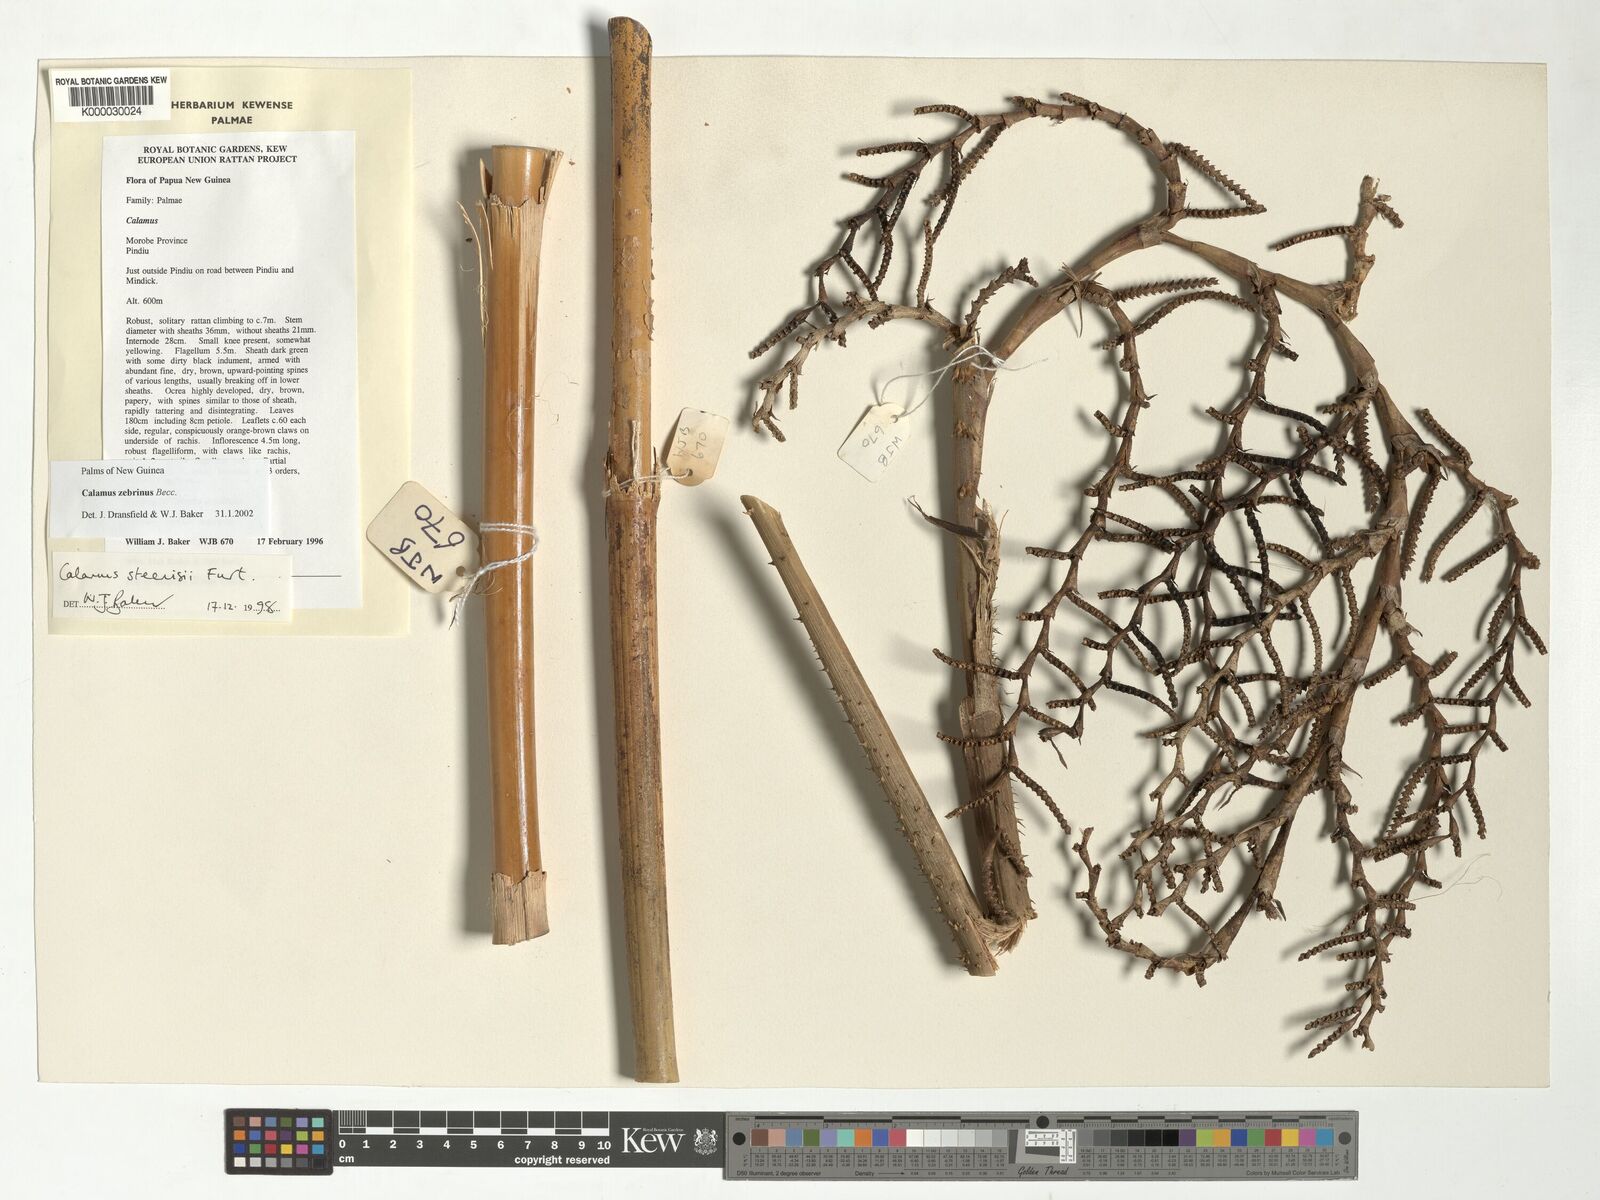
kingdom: Plantae
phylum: Tracheophyta
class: Liliopsida
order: Arecales
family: Arecaceae
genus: Calamus
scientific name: Calamus zebrinus
